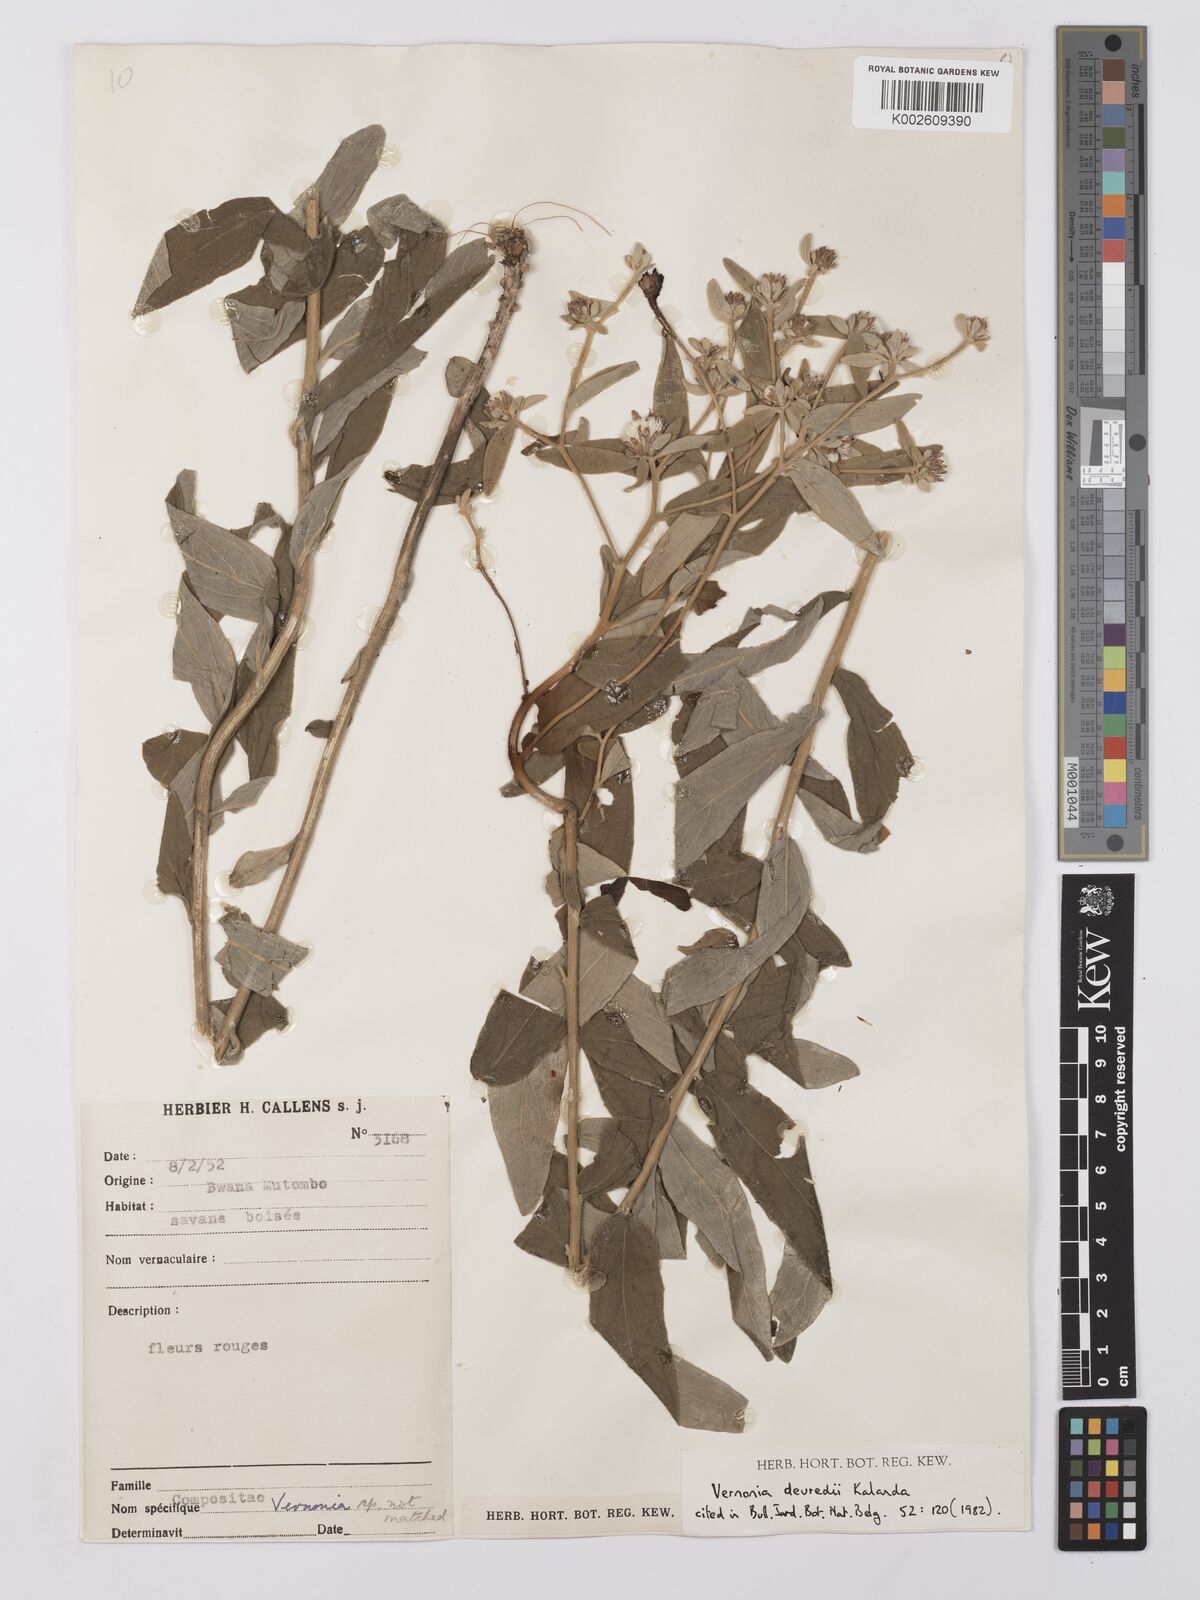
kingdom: Plantae
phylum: Tracheophyta
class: Magnoliopsida
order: Asterales
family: Asteraceae
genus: Vernonia
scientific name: Vernonia devredii
